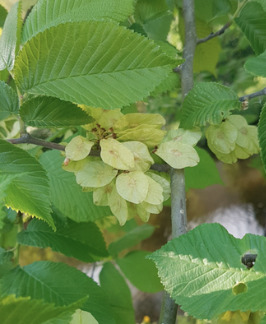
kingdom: Plantae
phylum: Tracheophyta
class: Magnoliopsida
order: Rosales
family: Ulmaceae
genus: Ulmus
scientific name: Ulmus glabra
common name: Skov-elm/storbladet elm
